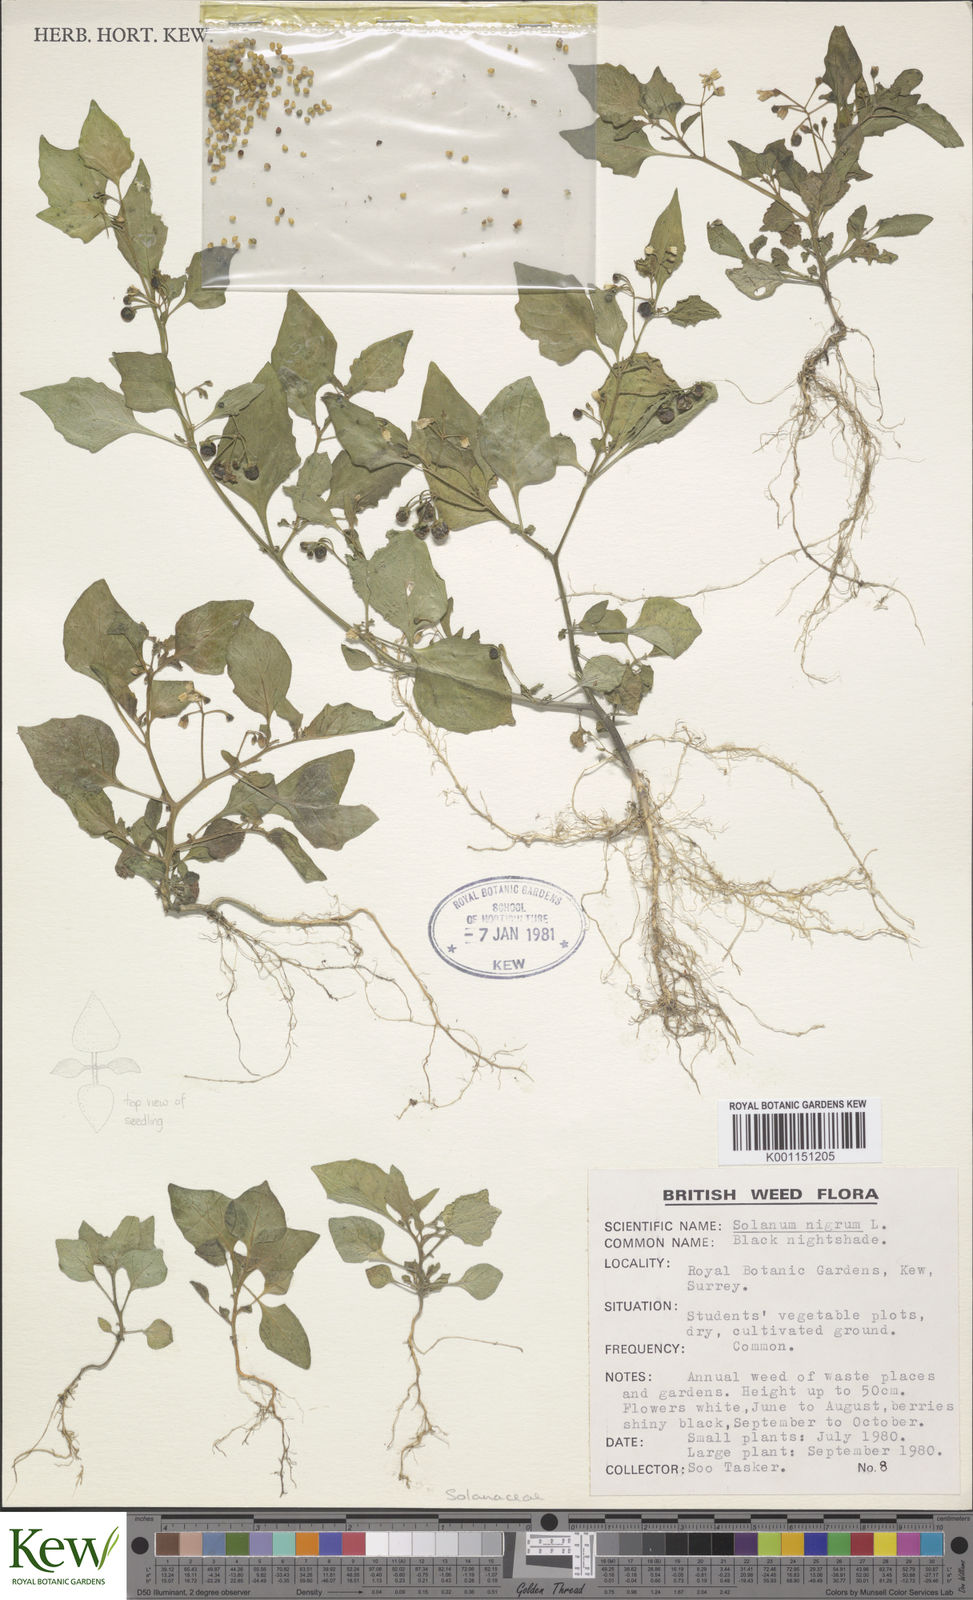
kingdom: Plantae
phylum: Tracheophyta
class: Magnoliopsida
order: Solanales
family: Solanaceae
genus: Solanum
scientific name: Solanum nigrum
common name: Black nightshade
